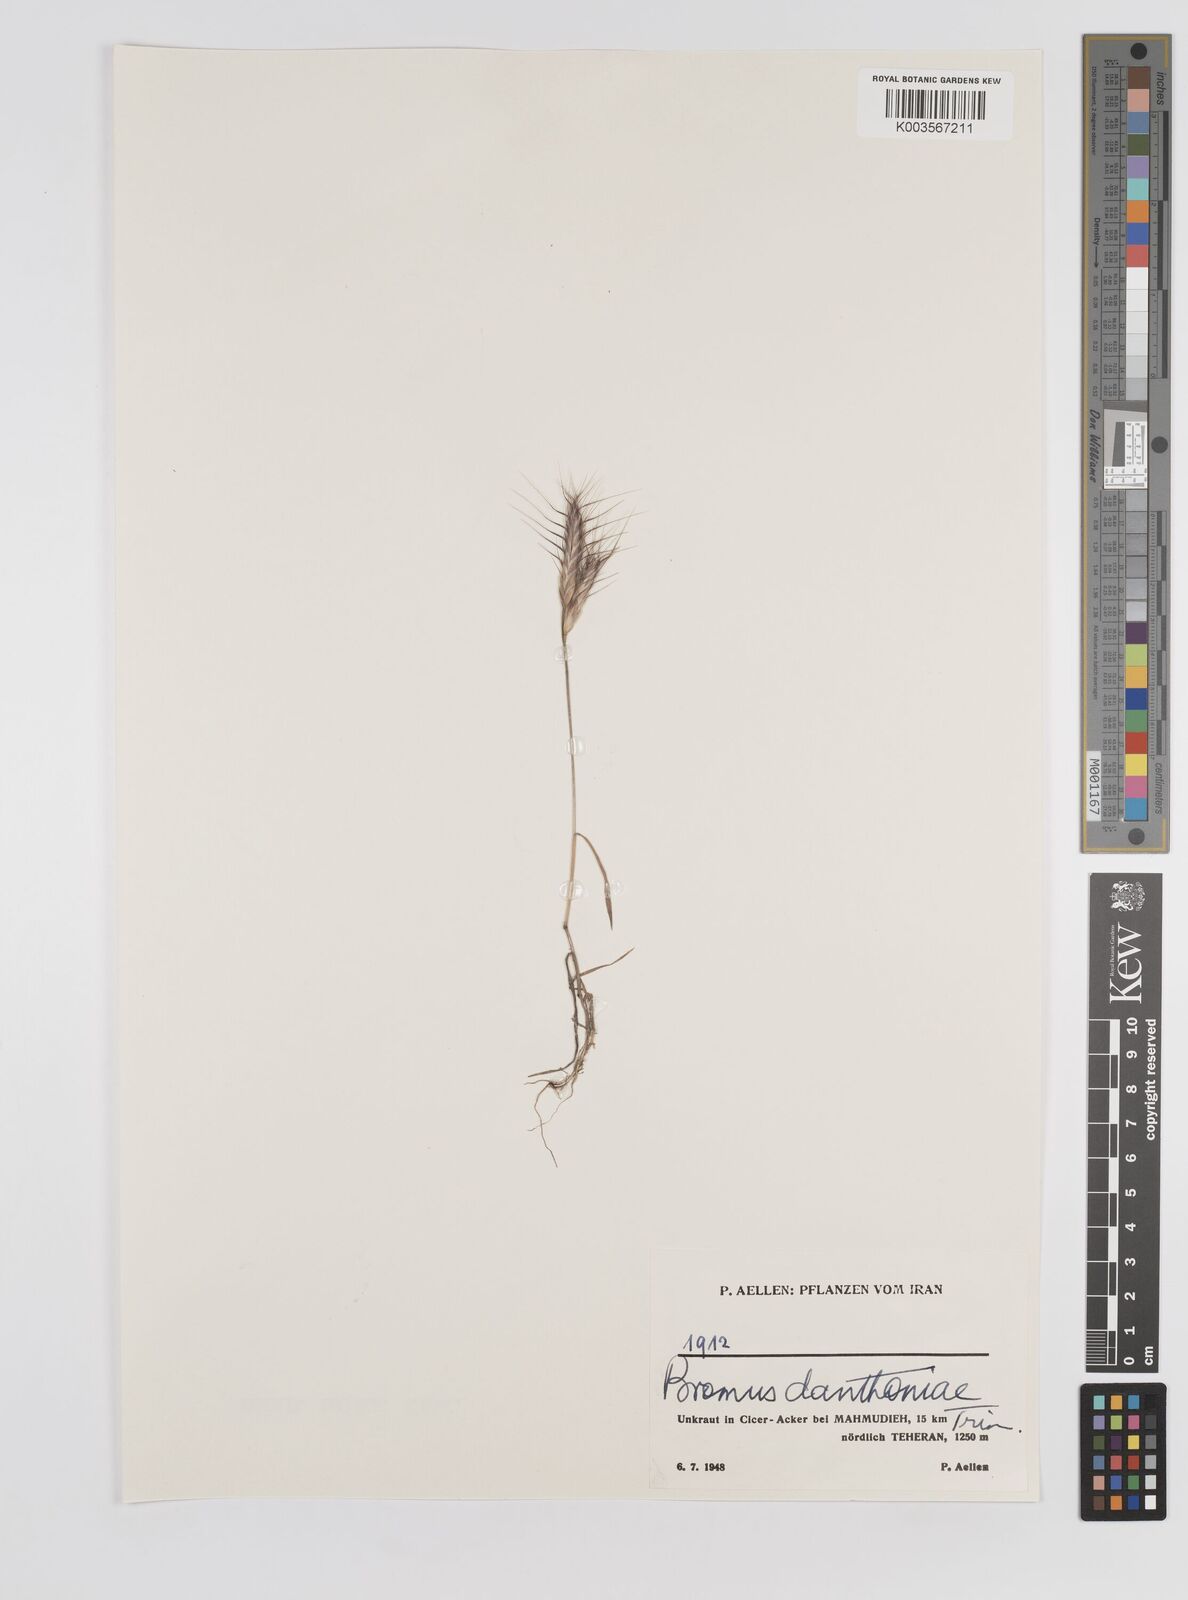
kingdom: Plantae
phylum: Tracheophyta
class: Liliopsida
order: Poales
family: Poaceae
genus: Bromus
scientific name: Bromus danthoniae
